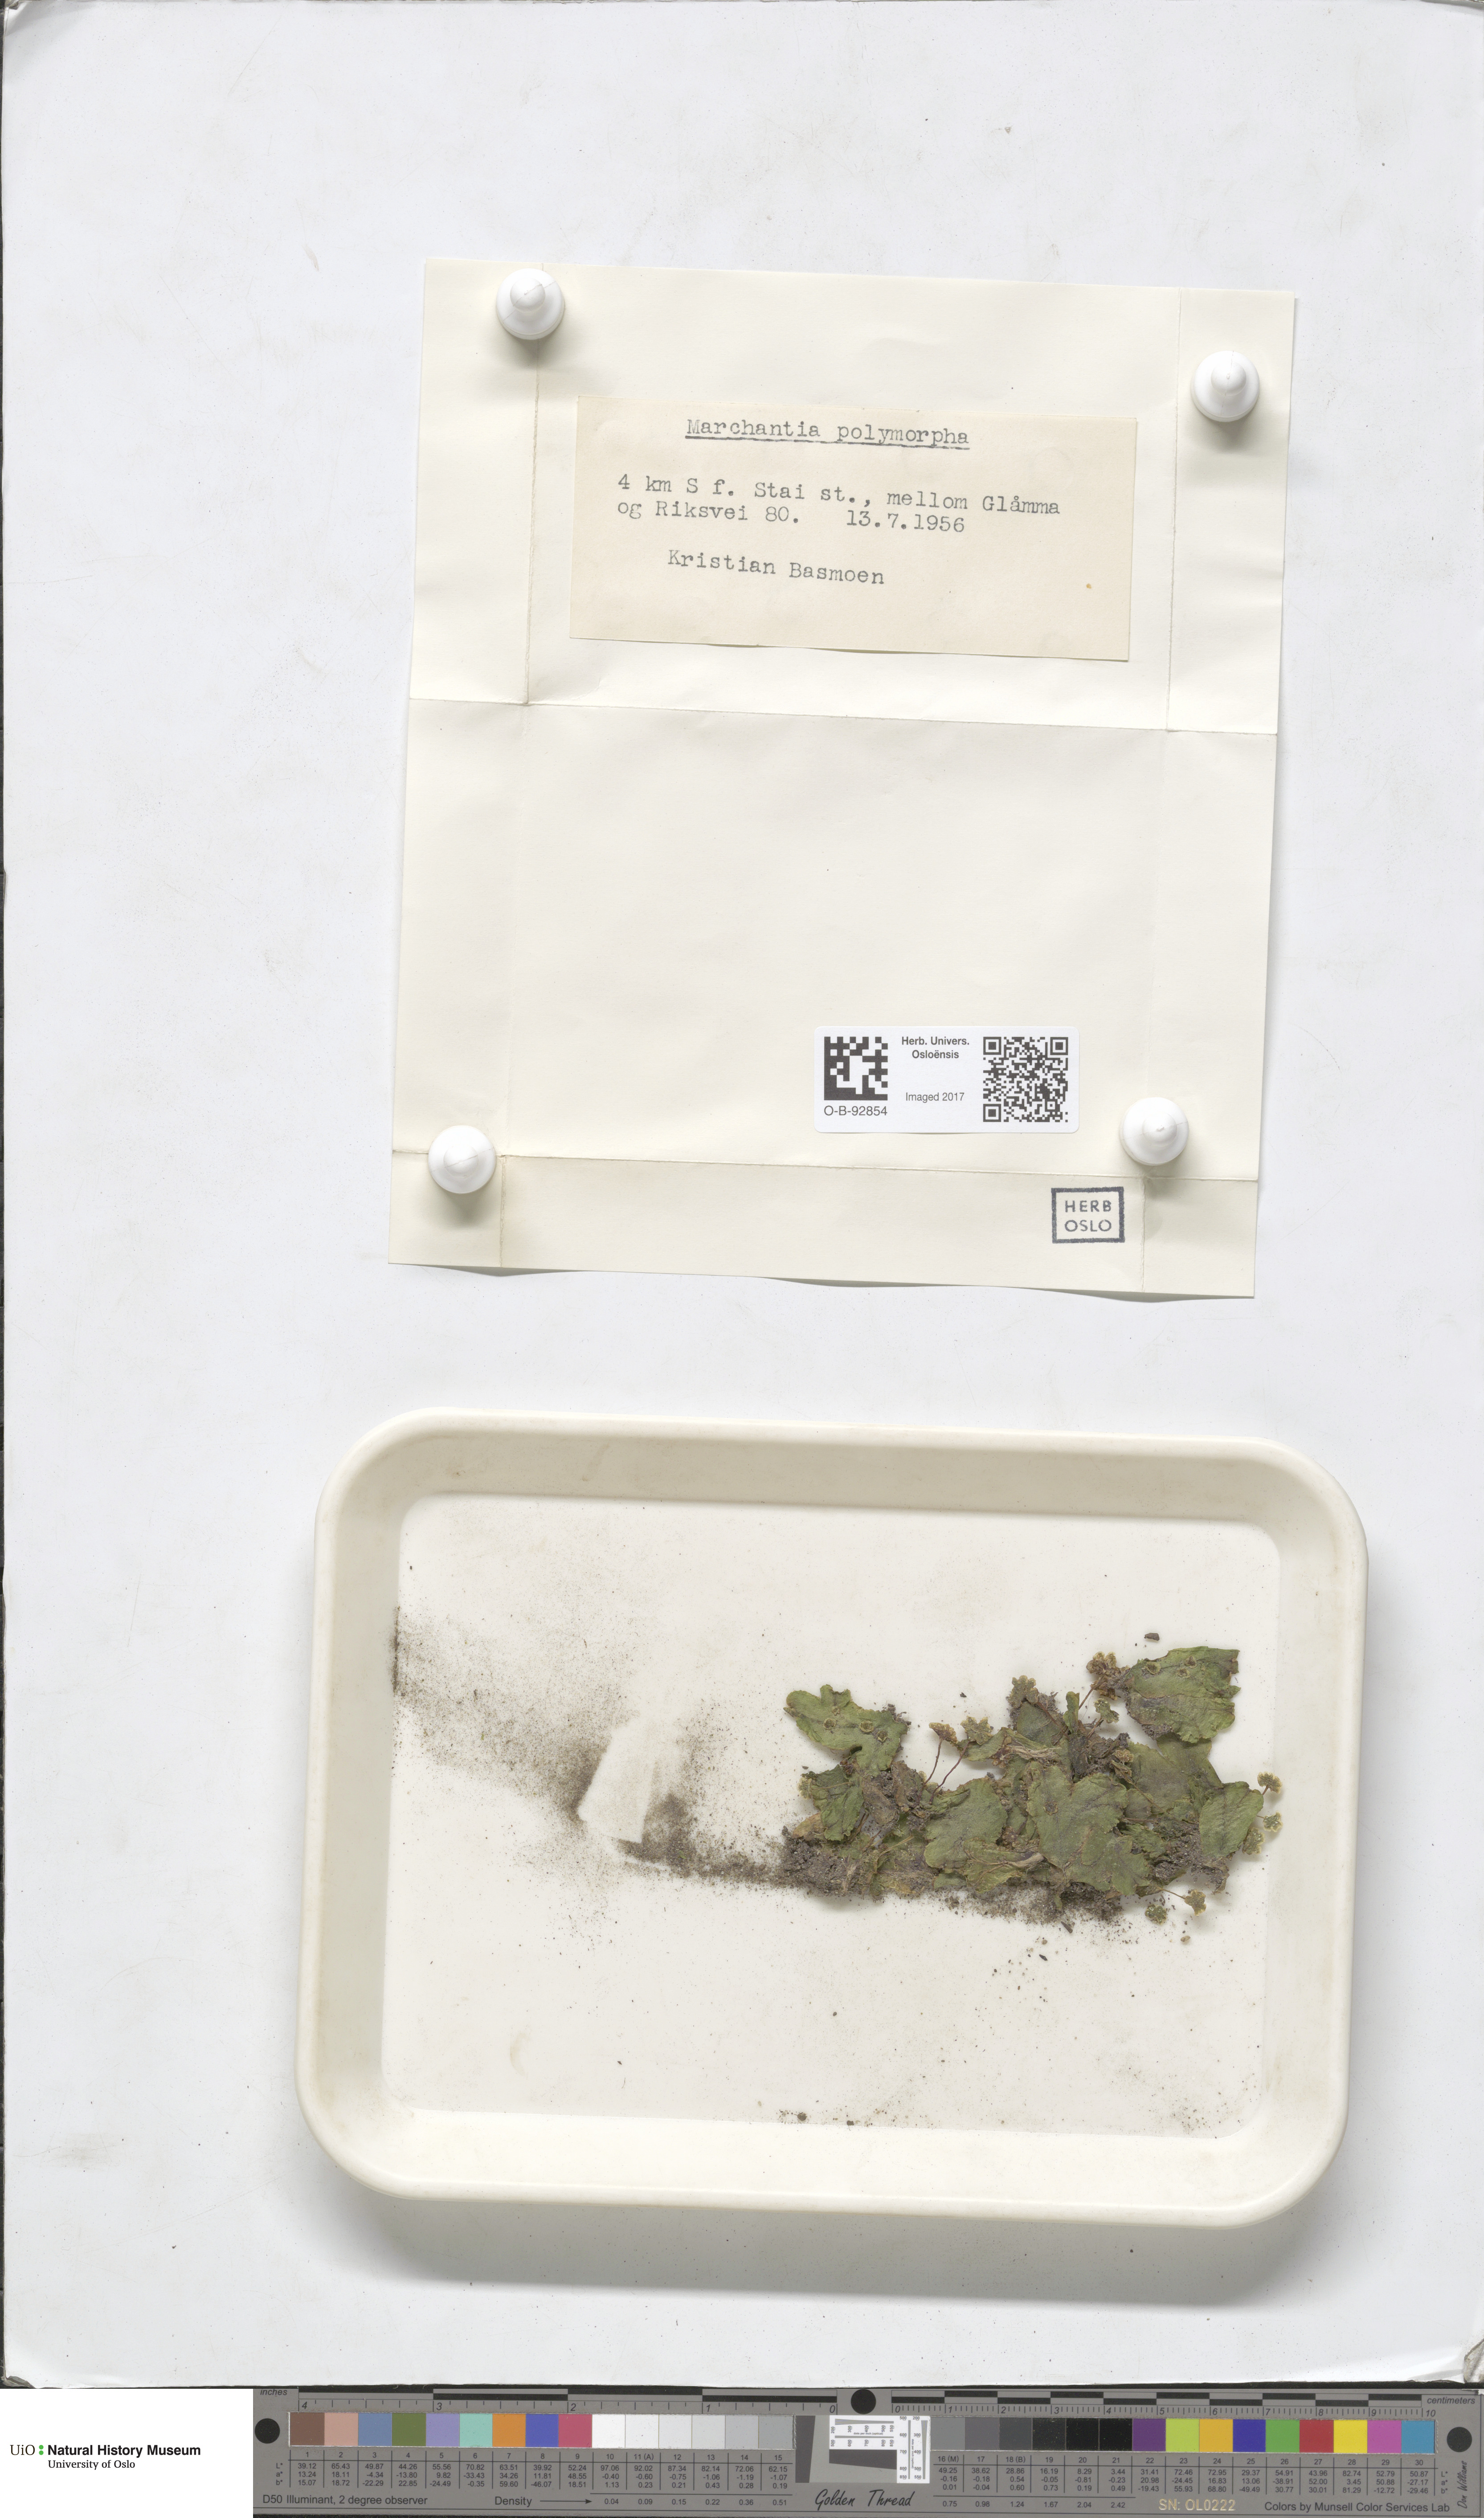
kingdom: Plantae
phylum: Marchantiophyta
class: Marchantiopsida
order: Marchantiales
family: Marchantiaceae
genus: Marchantia
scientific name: Marchantia polymorpha
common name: Common liverwort
